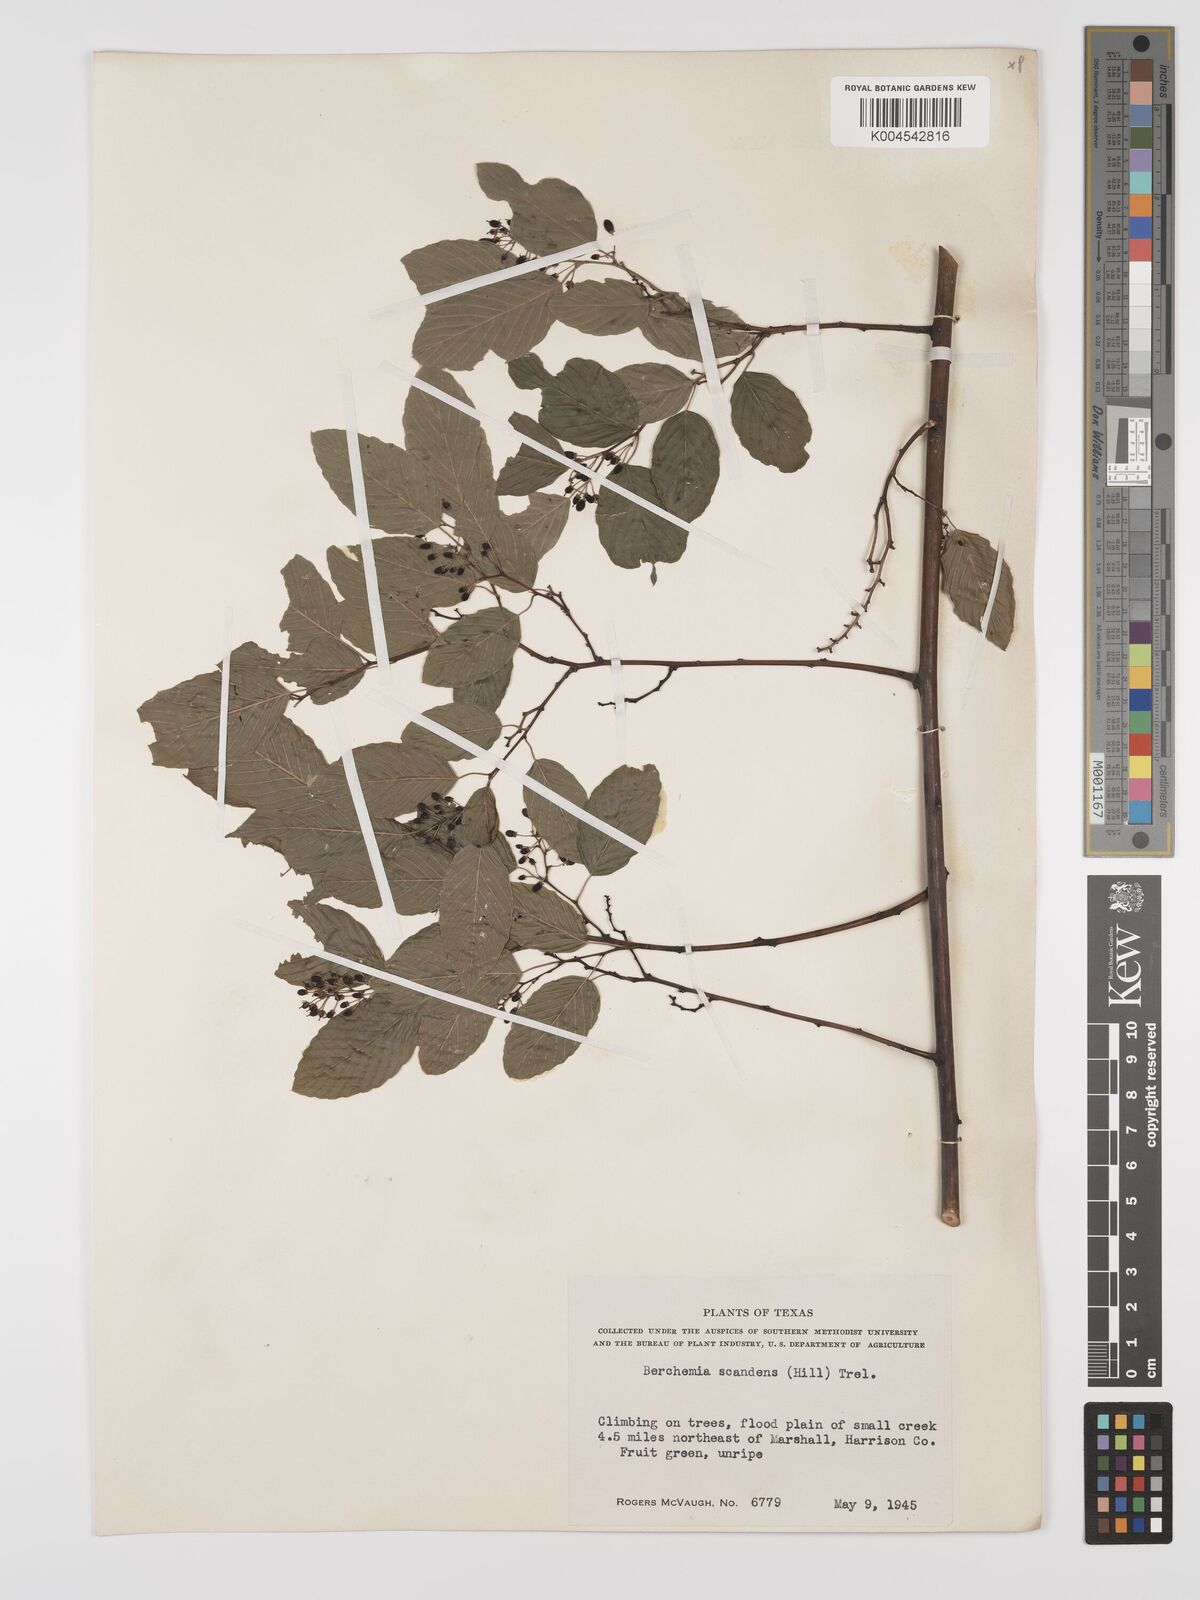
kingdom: Plantae
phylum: Tracheophyta
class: Magnoliopsida
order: Rosales
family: Rhamnaceae
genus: Berchemia
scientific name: Berchemia scandens
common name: Supplejack
